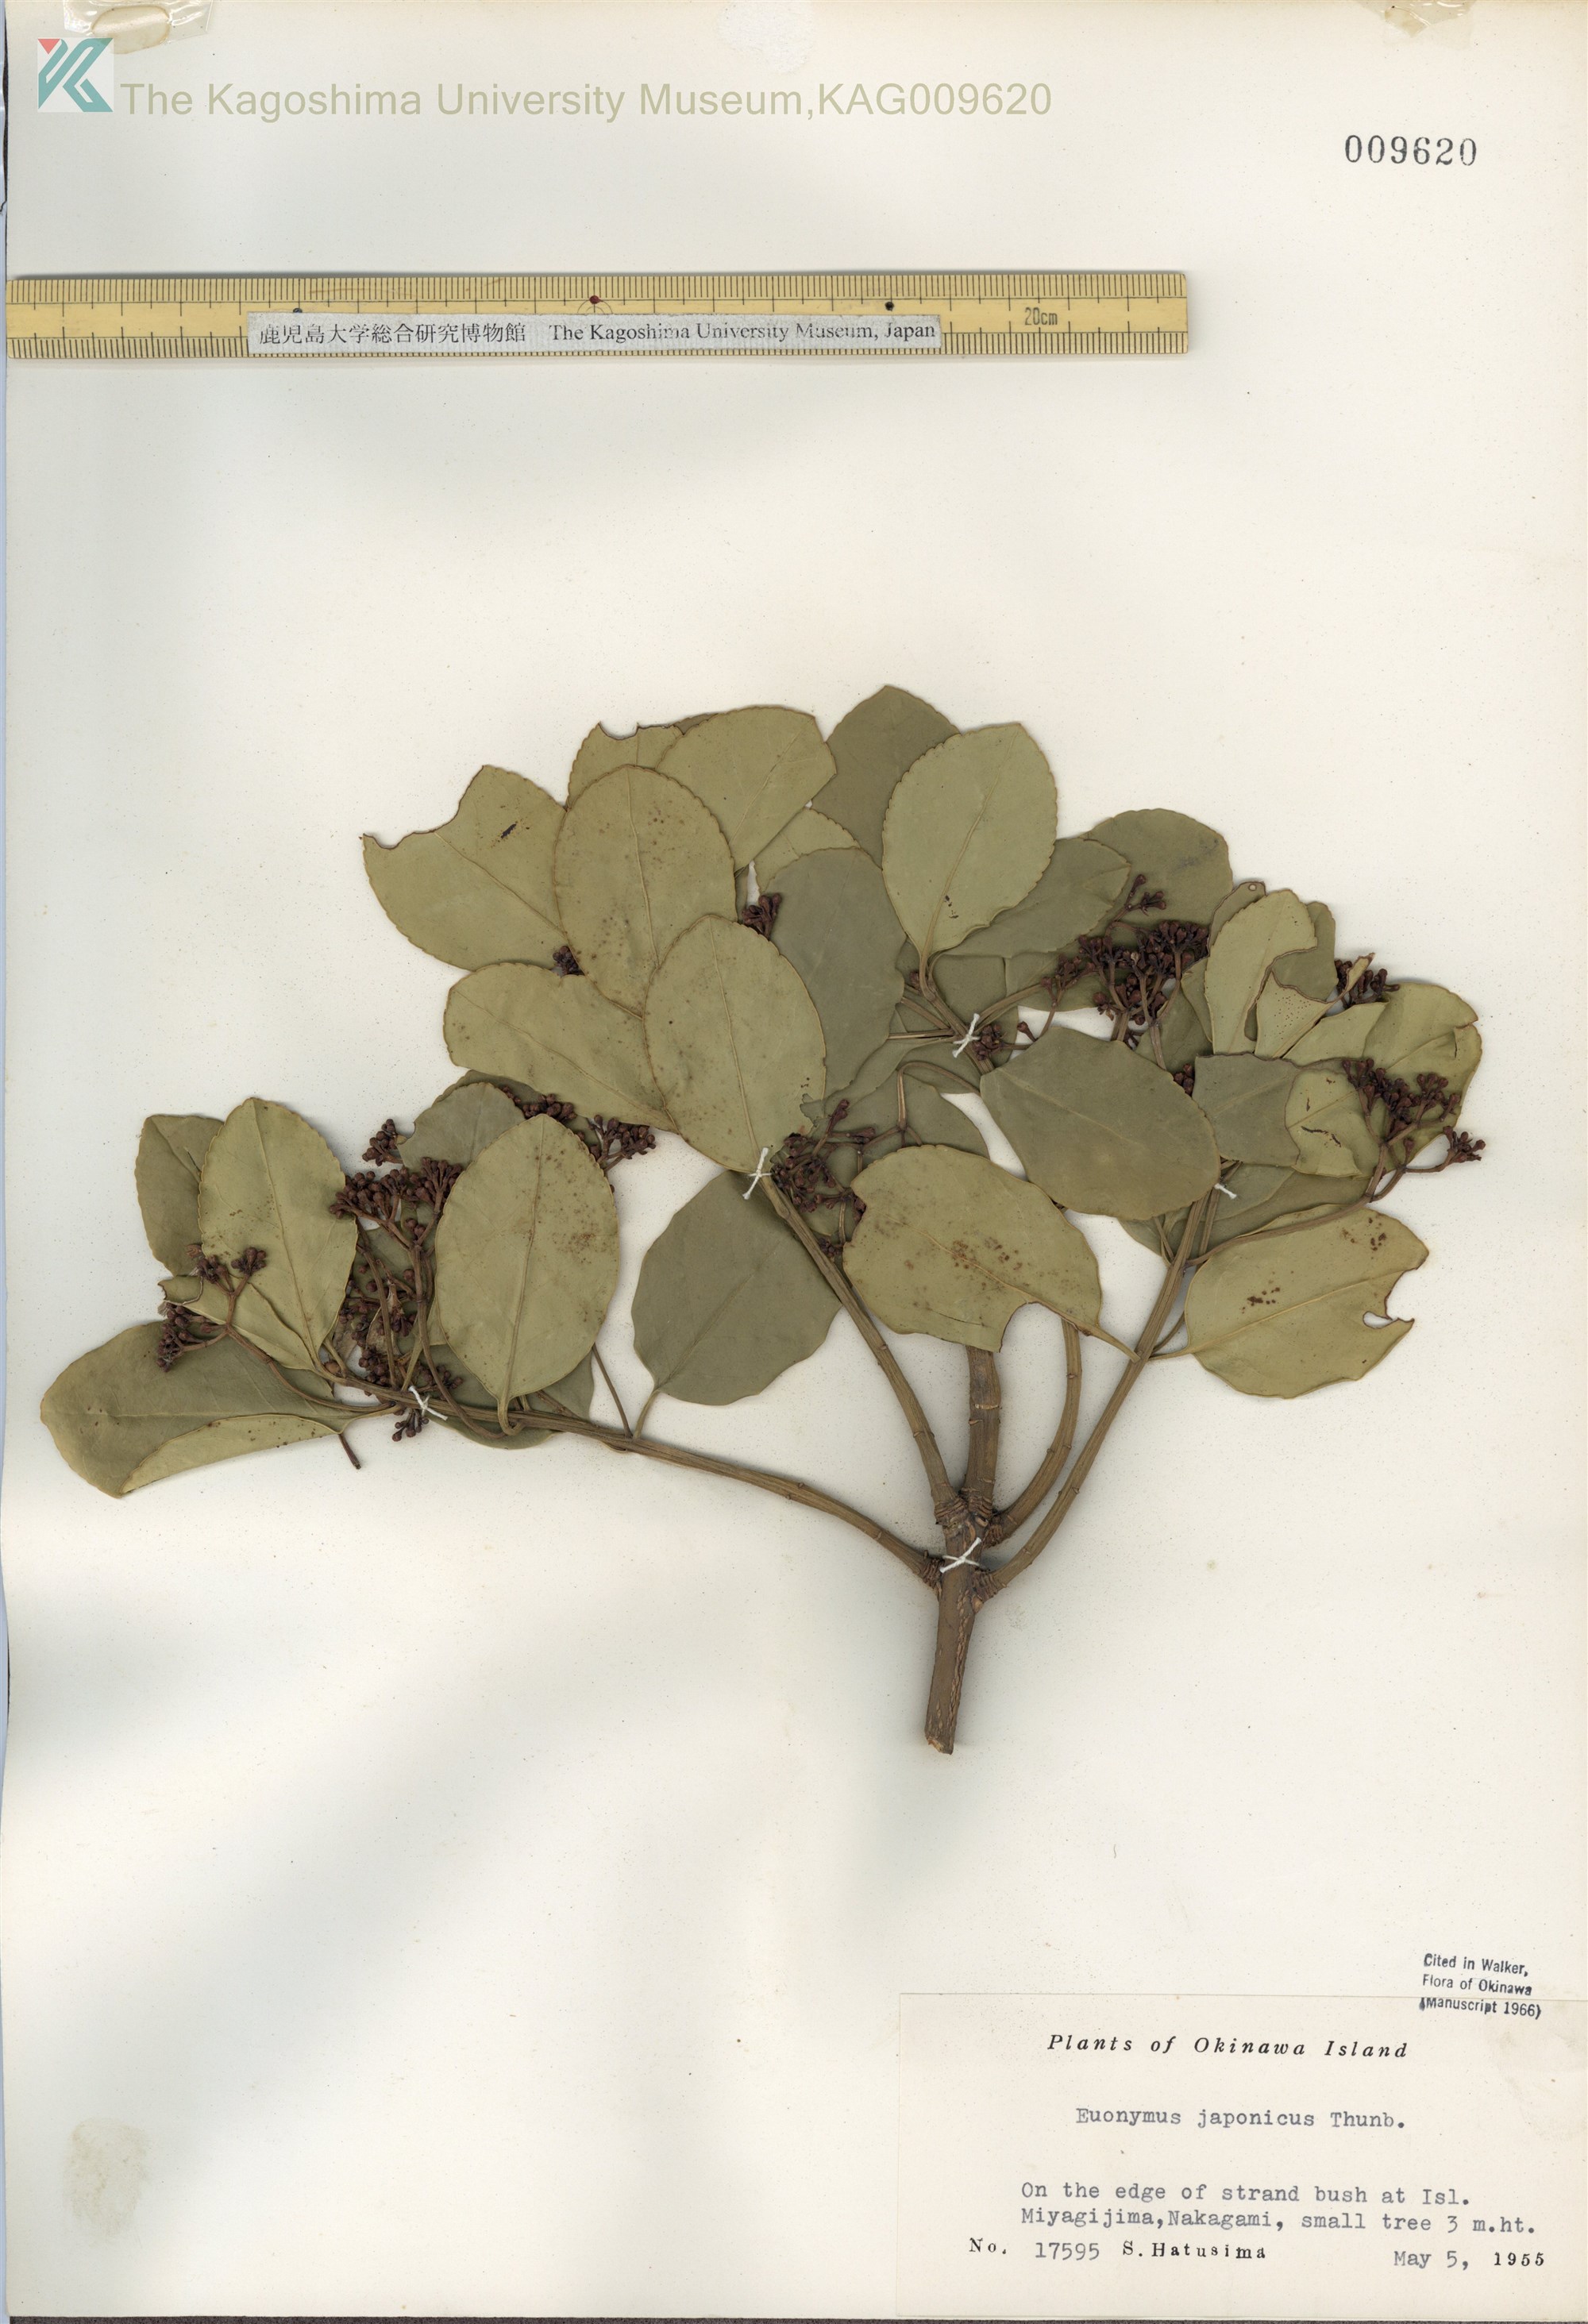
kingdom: Plantae
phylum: Tracheophyta
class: Magnoliopsida
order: Celastrales
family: Celastraceae
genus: Euonymus
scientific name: Euonymus japonicus
